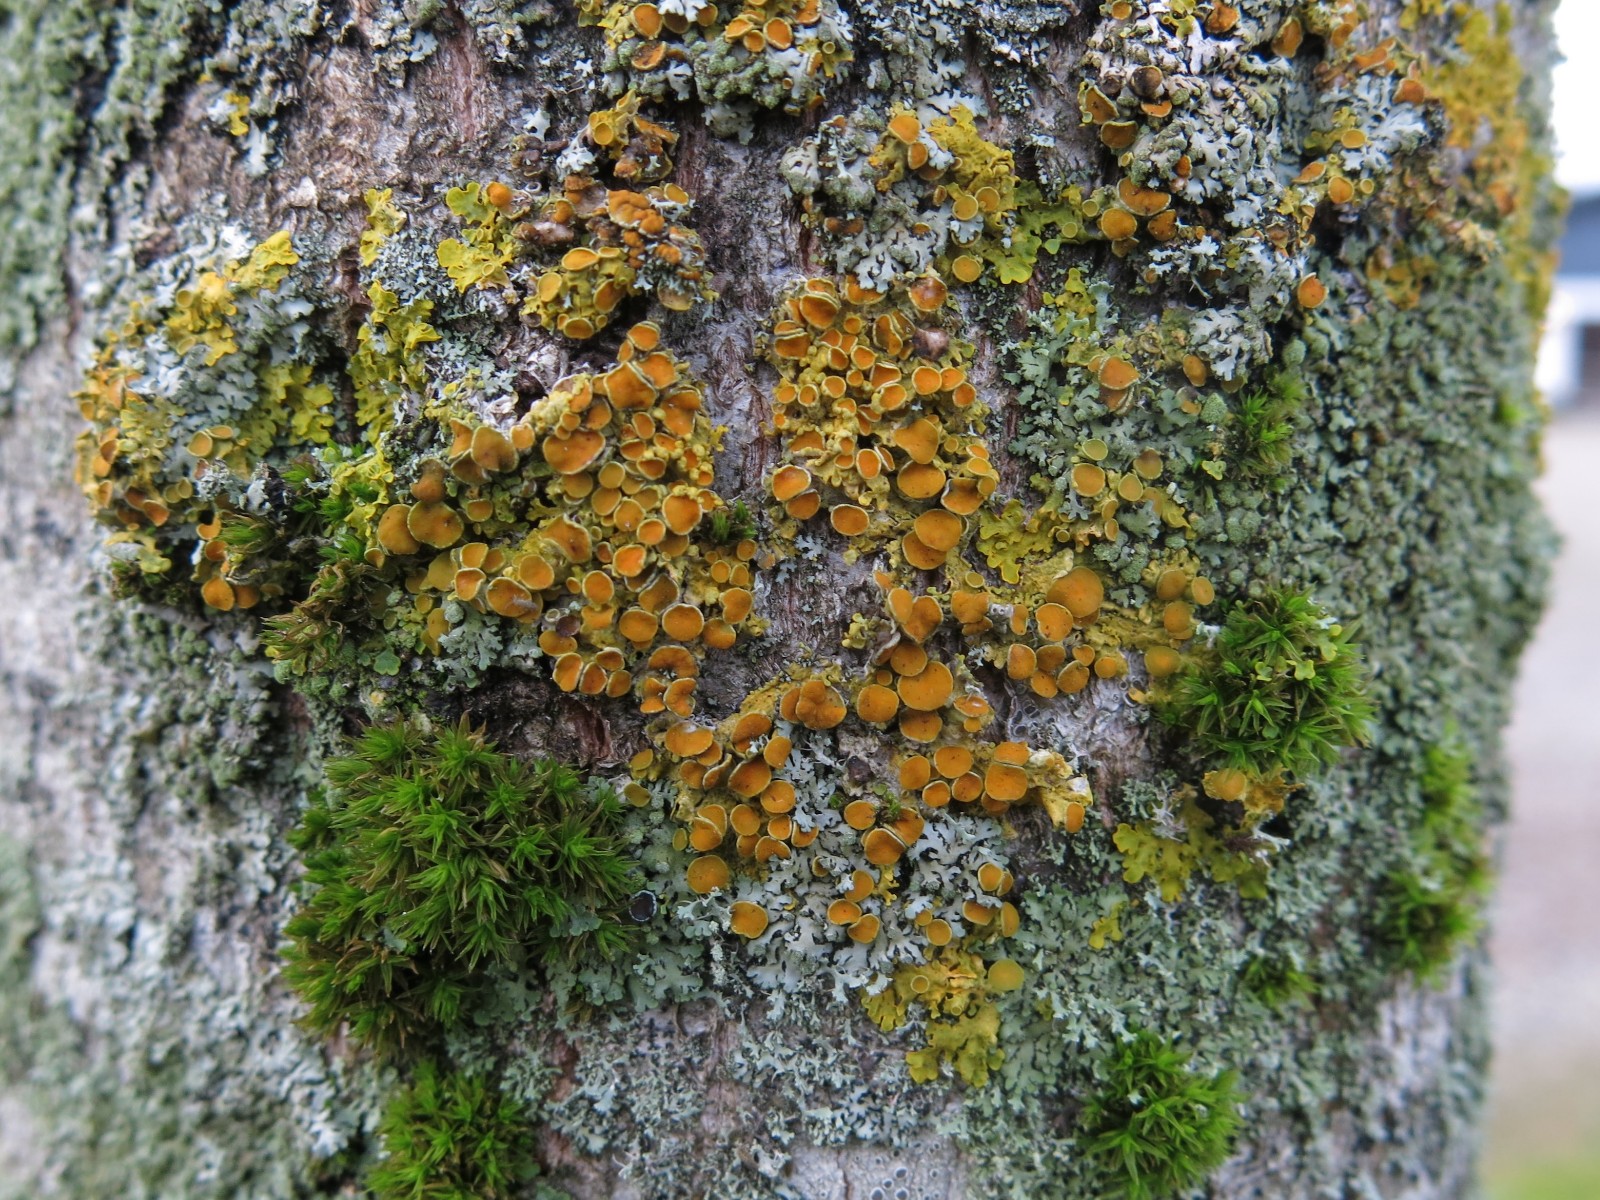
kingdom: Fungi
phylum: Ascomycota
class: Lecanoromycetes
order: Teloschistales
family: Teloschistaceae
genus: Xanthoria
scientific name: Xanthoria parietina
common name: almindelig væggelav
